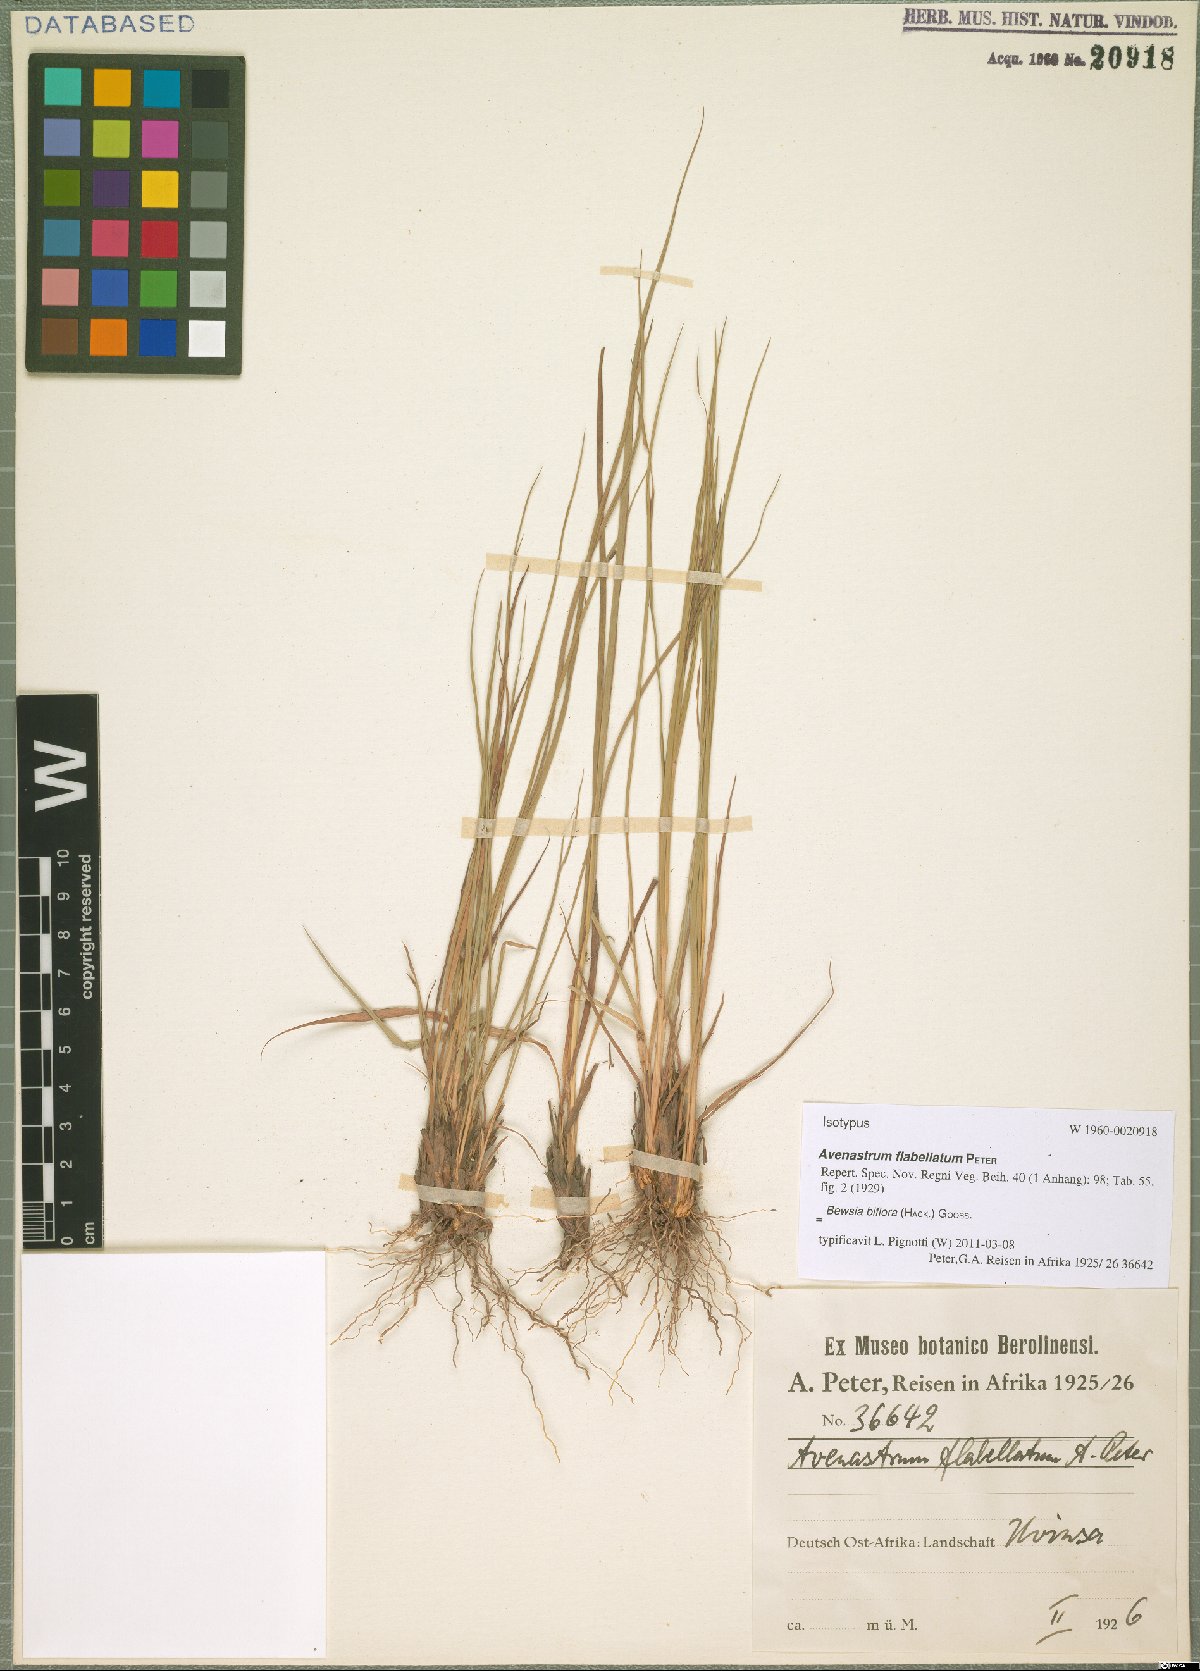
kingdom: Plantae
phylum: Tracheophyta
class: Liliopsida
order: Poales
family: Poaceae
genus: Bewsia
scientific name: Bewsia biflora
